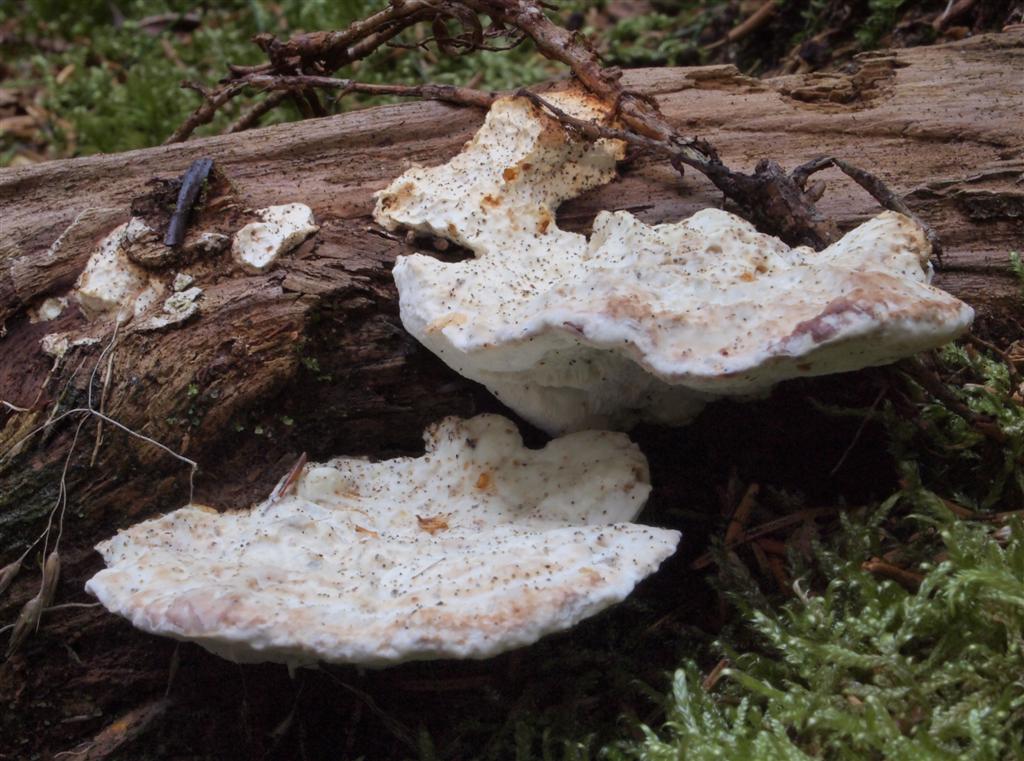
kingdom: Fungi
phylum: Basidiomycota
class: Agaricomycetes
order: Polyporales
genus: Calcipostia
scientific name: Calcipostia guttulata
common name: dråbe-kødporesvamp
